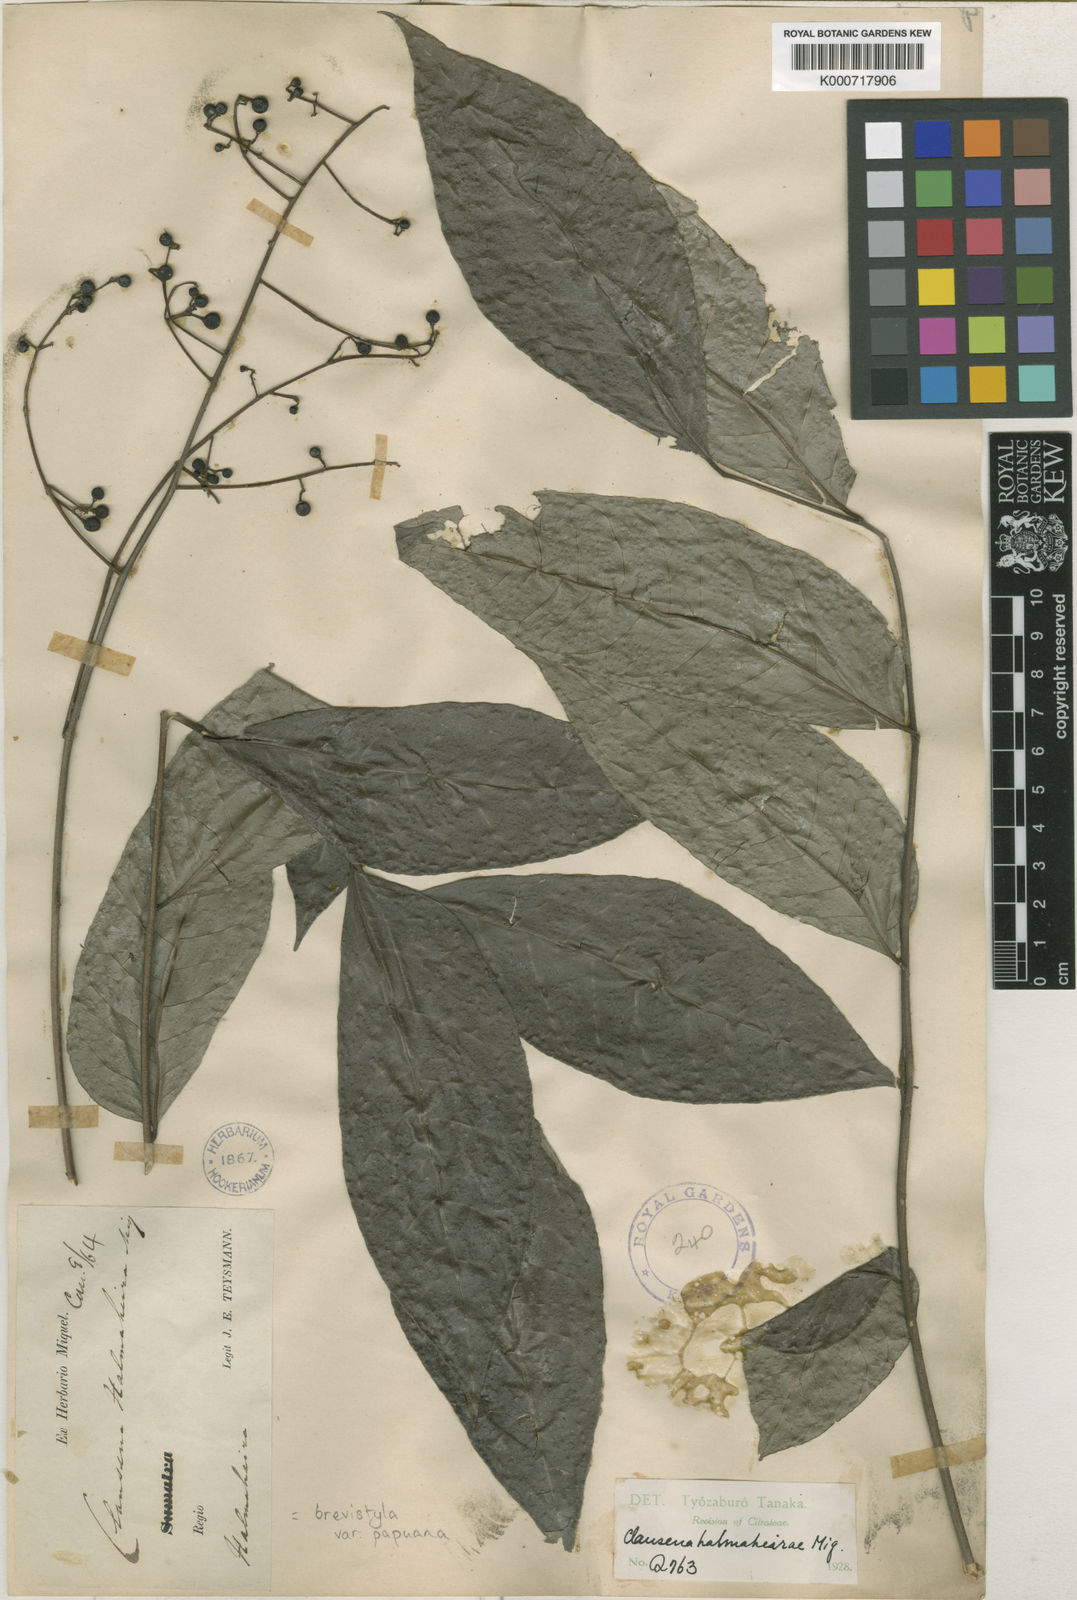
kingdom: Plantae
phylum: Tracheophyta
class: Magnoliopsida
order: Sapindales
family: Rutaceae
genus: Clausena
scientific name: Clausena brevistyla
